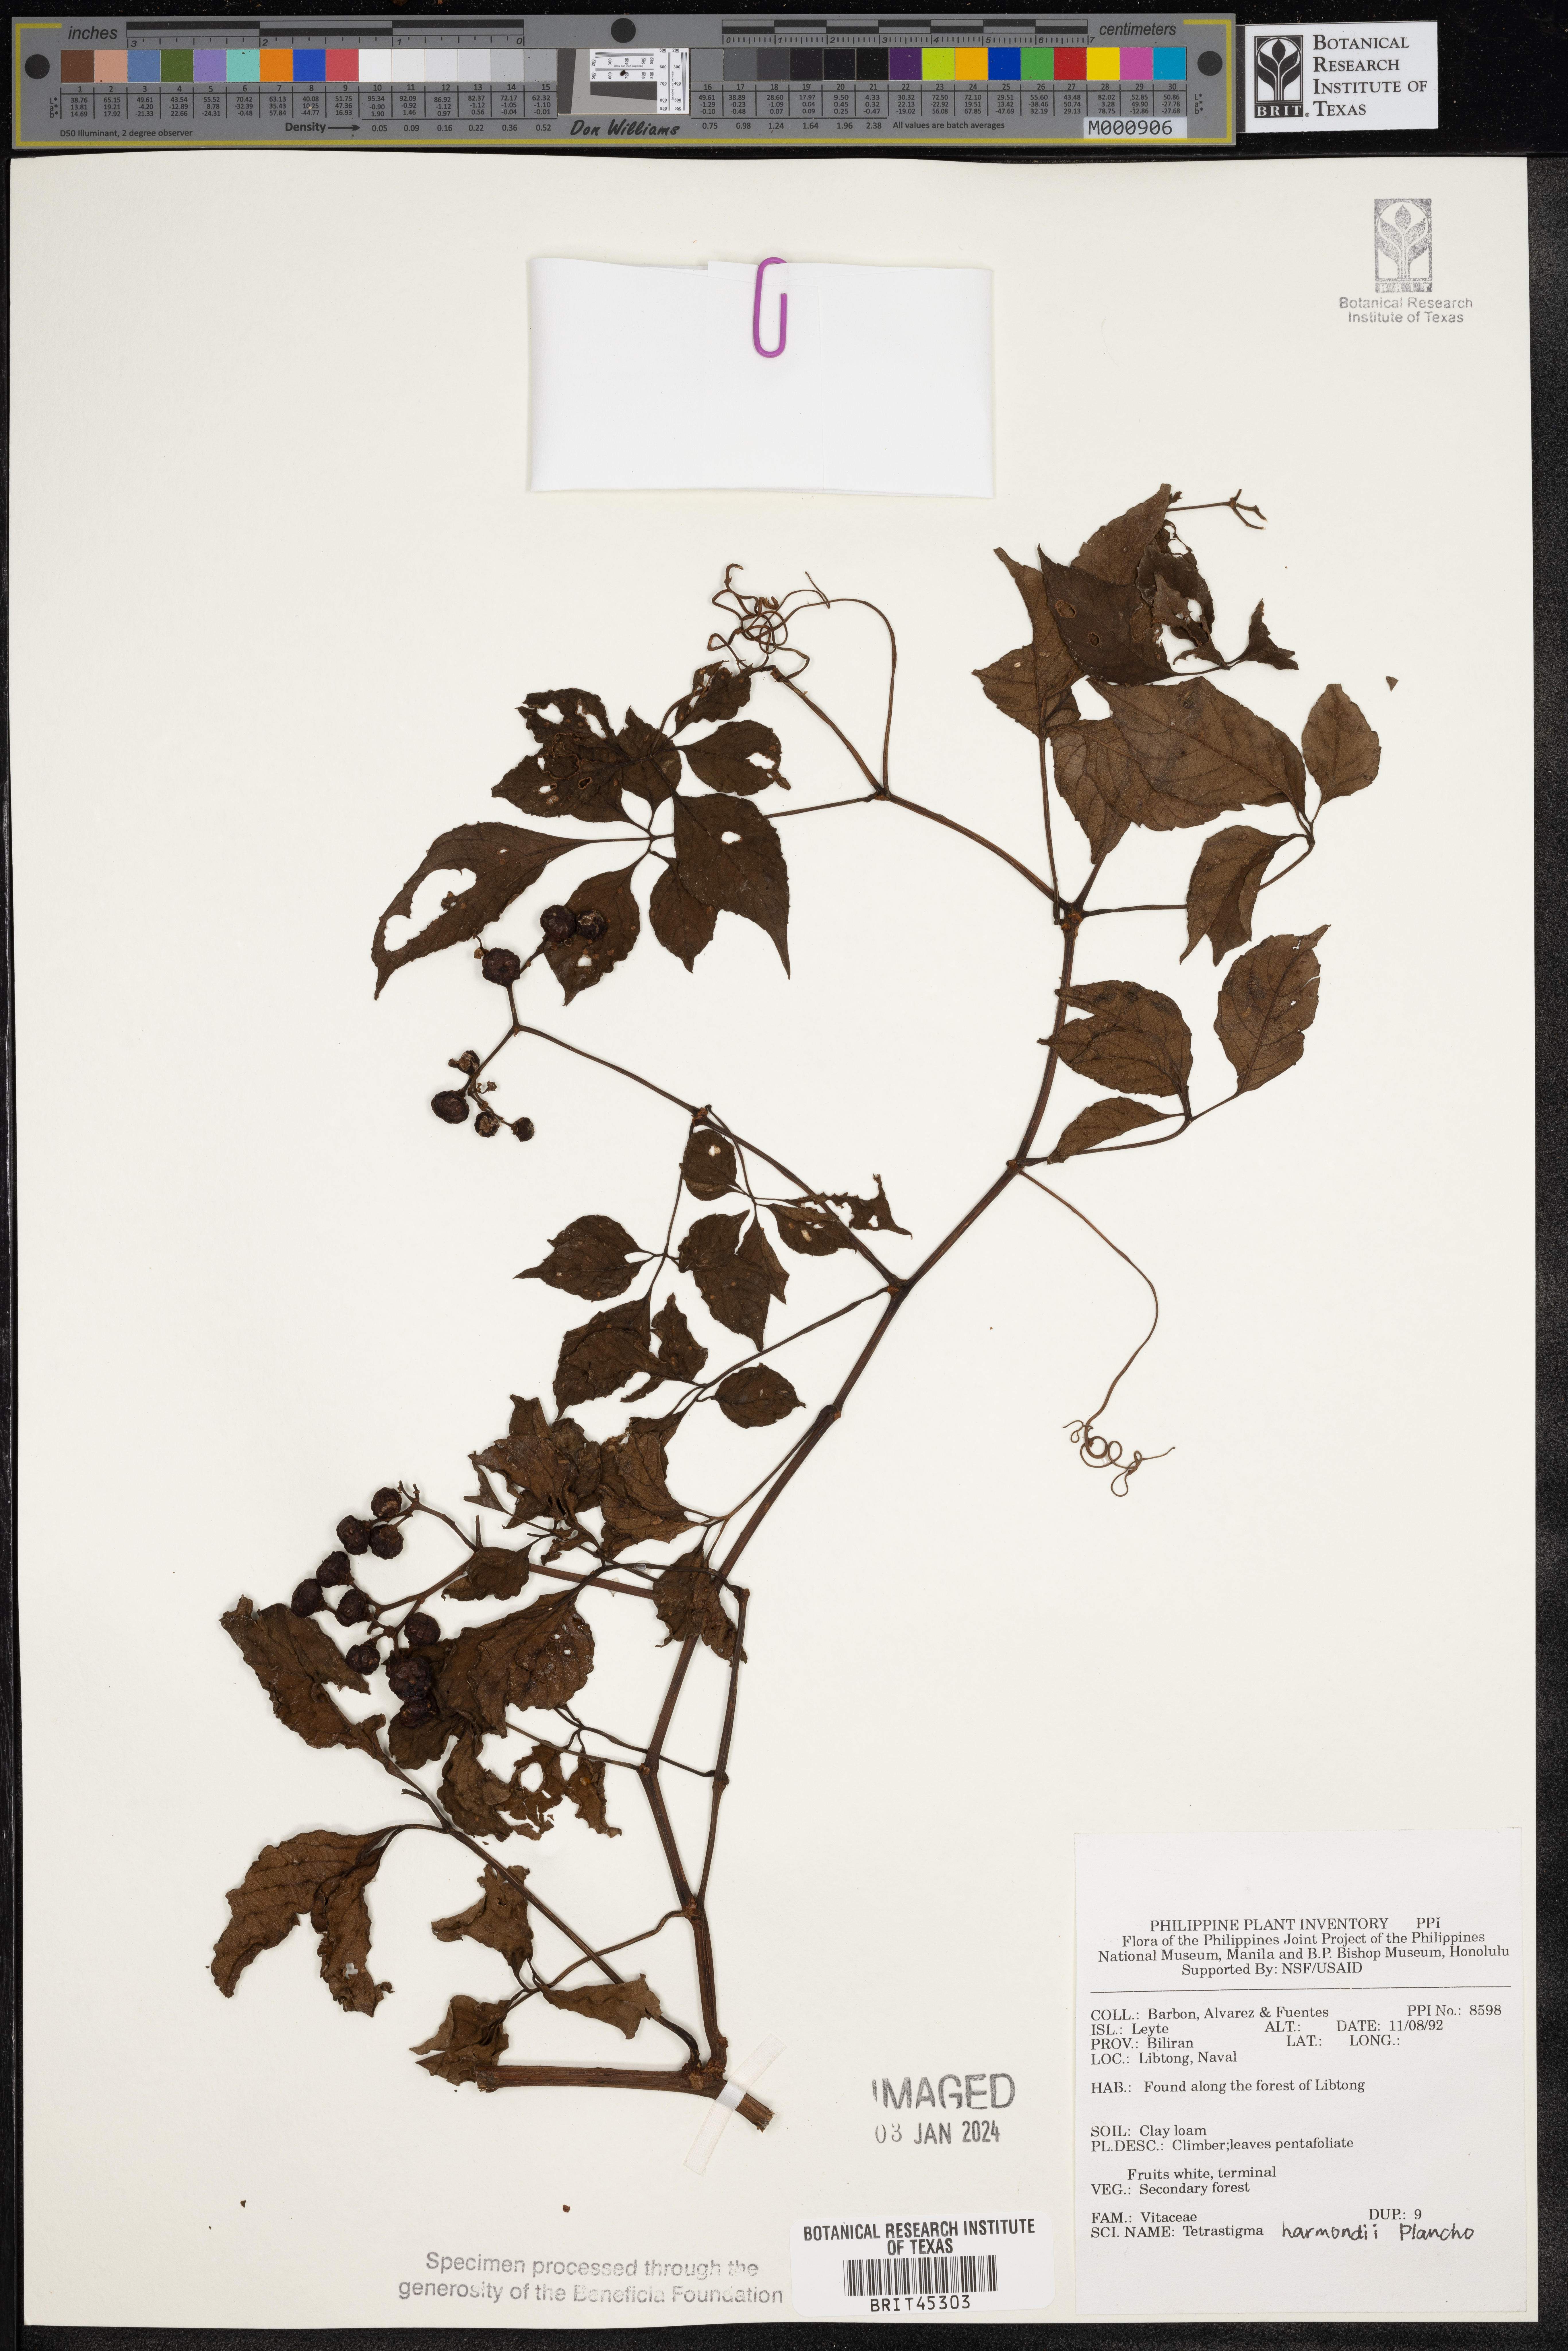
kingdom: Plantae
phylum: Tracheophyta
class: Magnoliopsida
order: Vitales
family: Vitaceae
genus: Tetrastigma
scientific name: Tetrastigma harmandii
